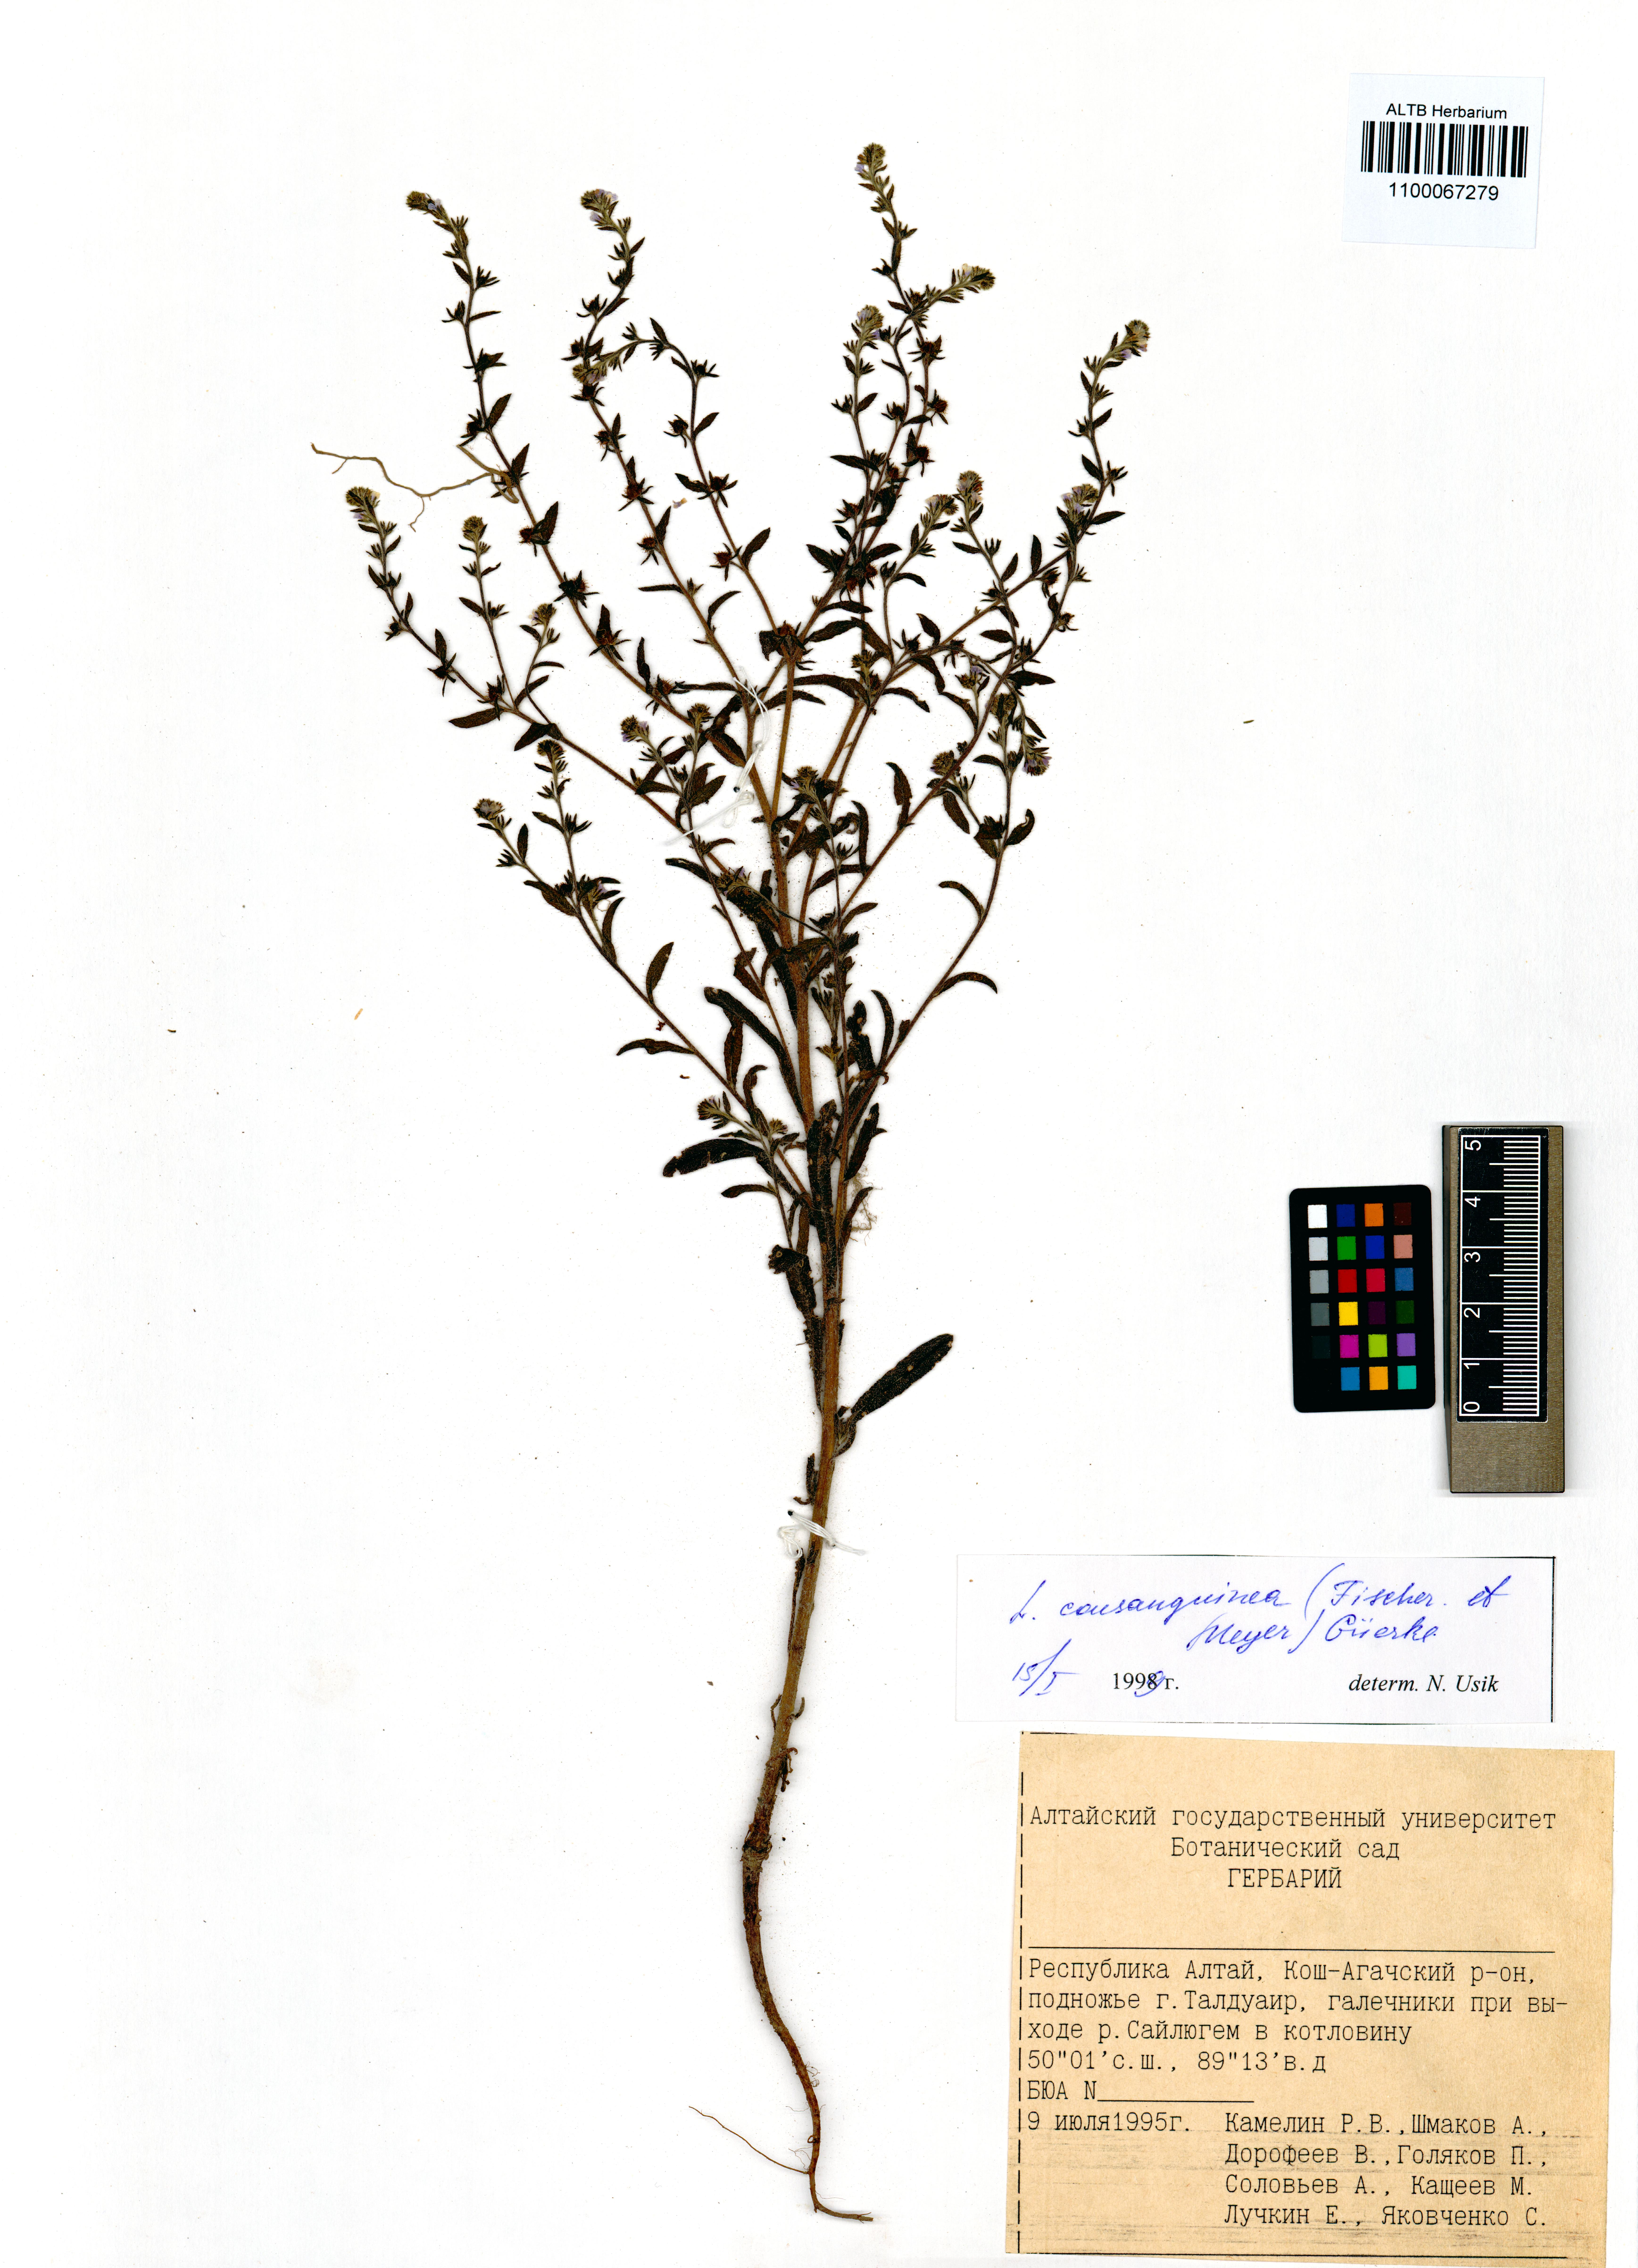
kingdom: Plantae
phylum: Tracheophyta
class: Magnoliopsida
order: Boraginales
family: Boraginaceae
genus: Lappula
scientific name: Lappula squarrosa
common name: European stickseed
